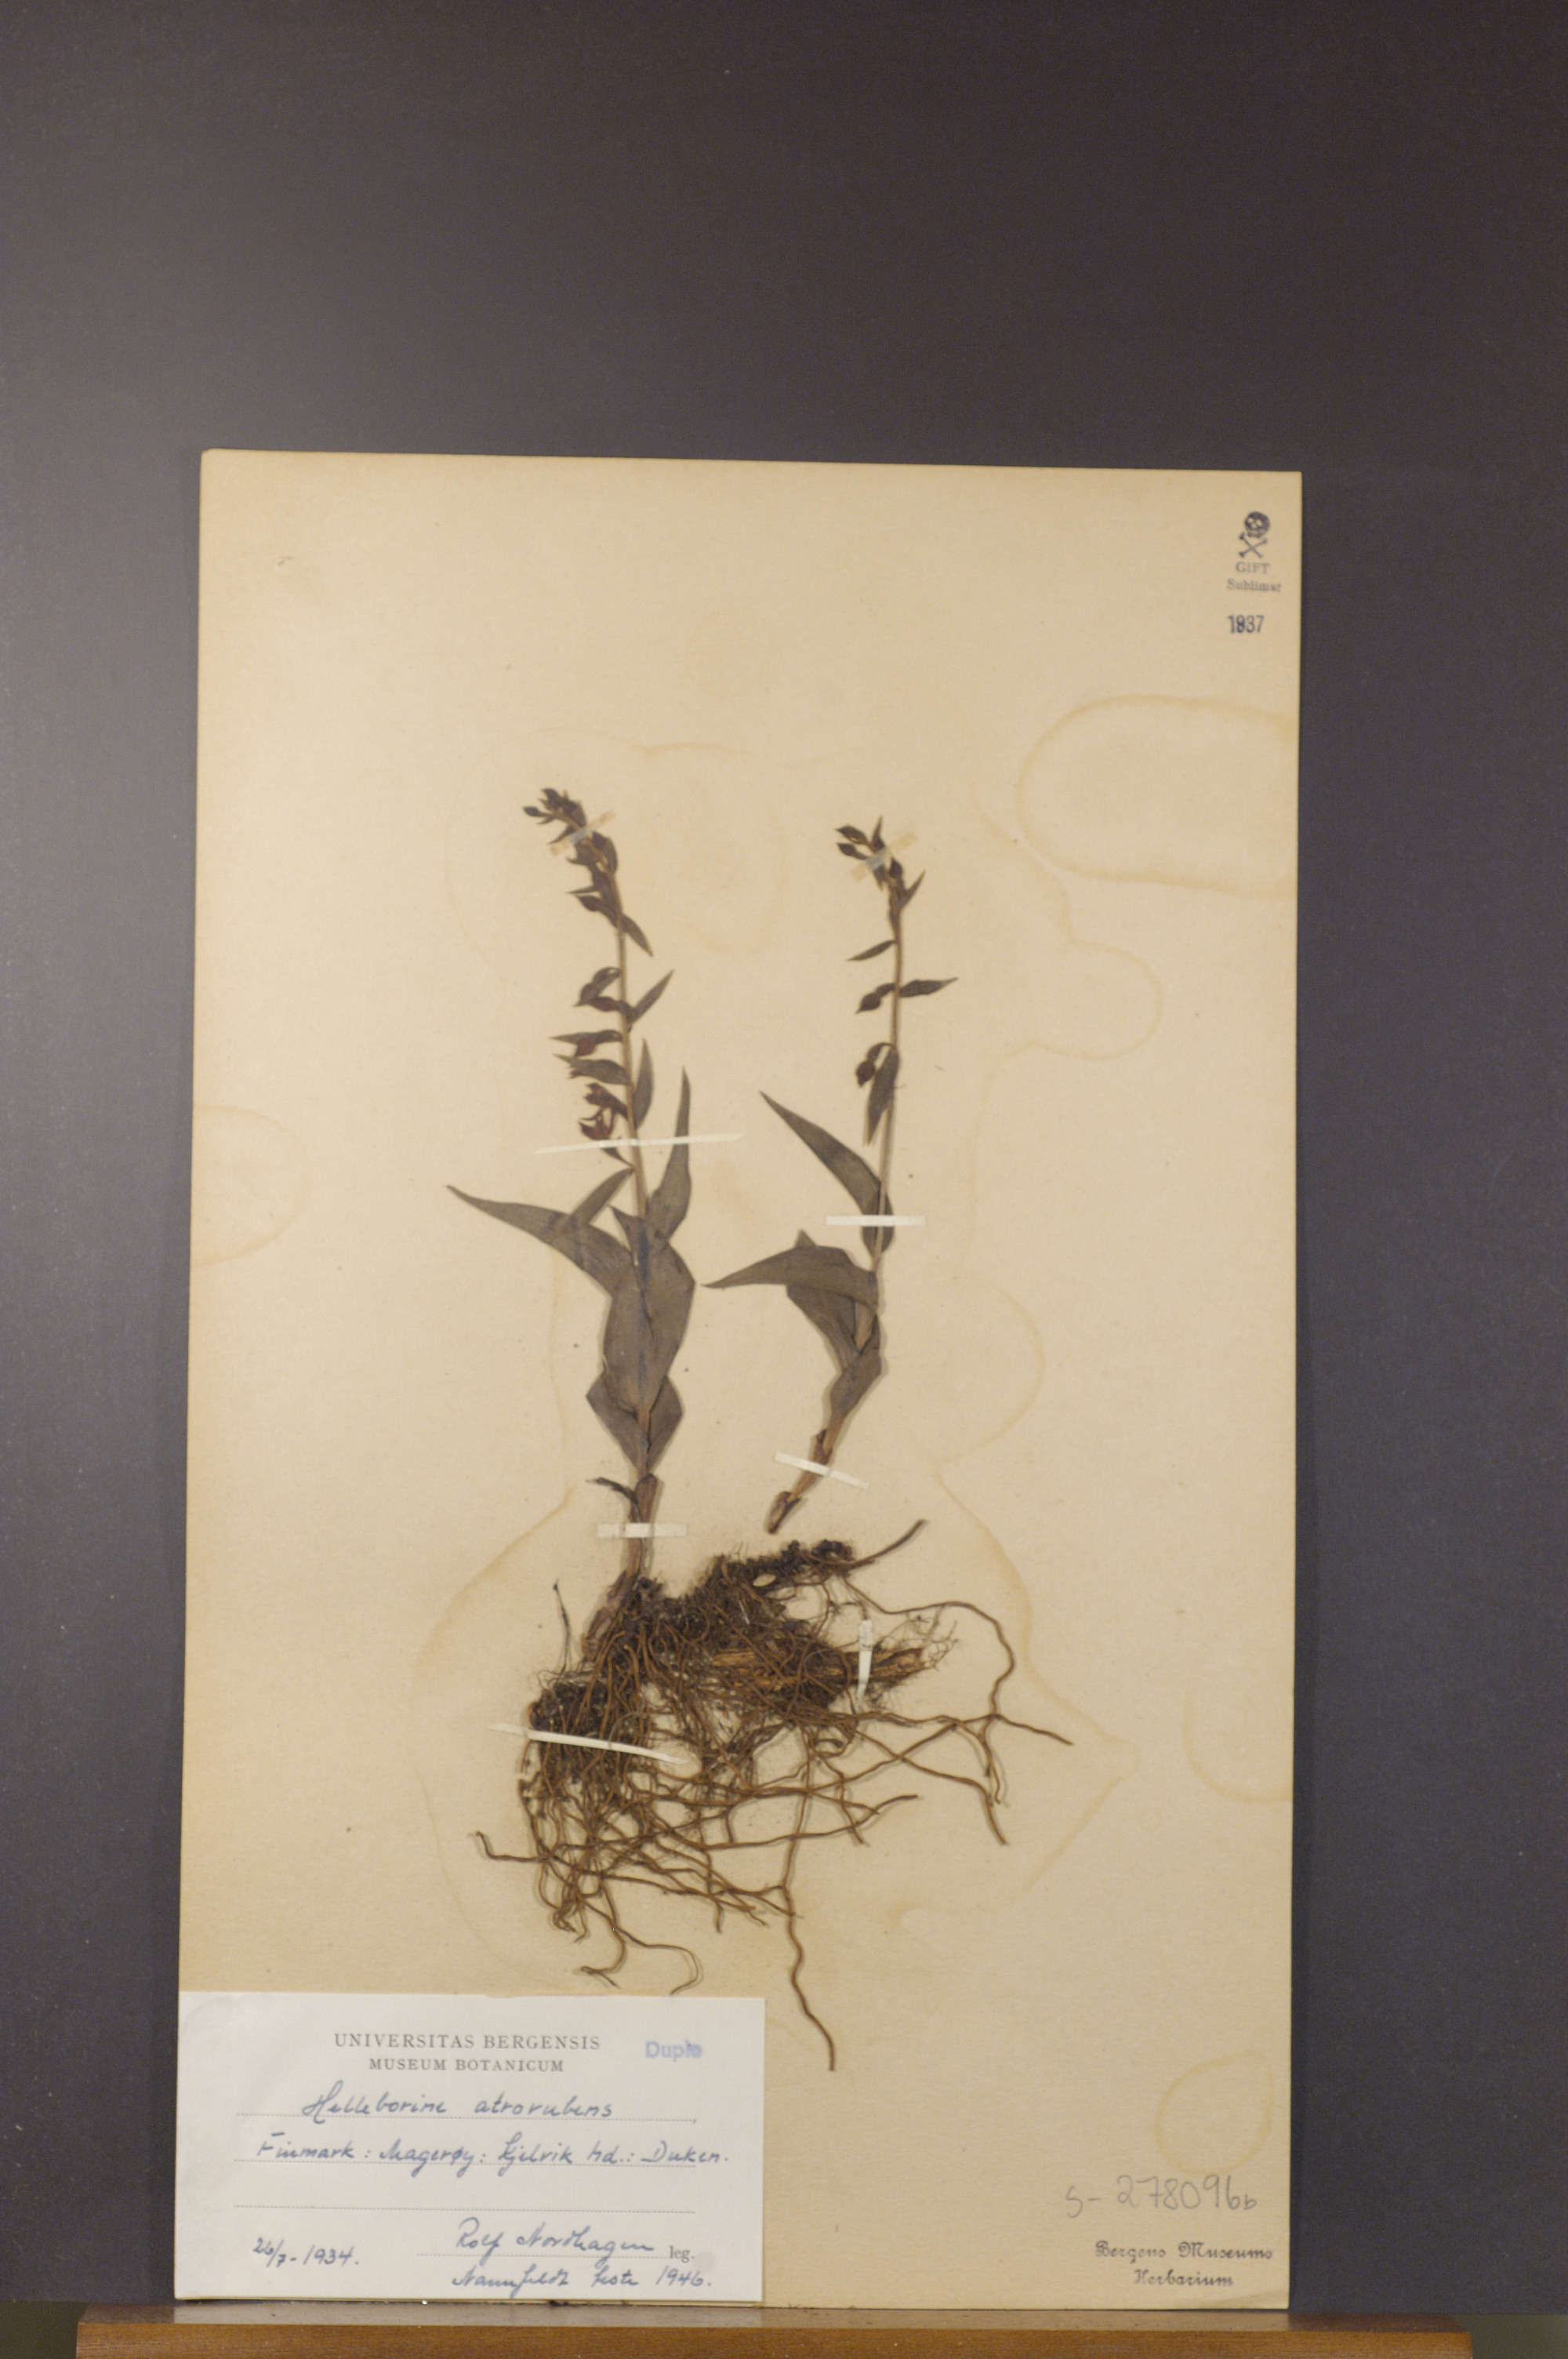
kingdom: Plantae
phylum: Tracheophyta
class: Liliopsida
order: Asparagales
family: Orchidaceae
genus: Epipactis
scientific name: Epipactis atrorubens
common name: Dark-red helleborine
